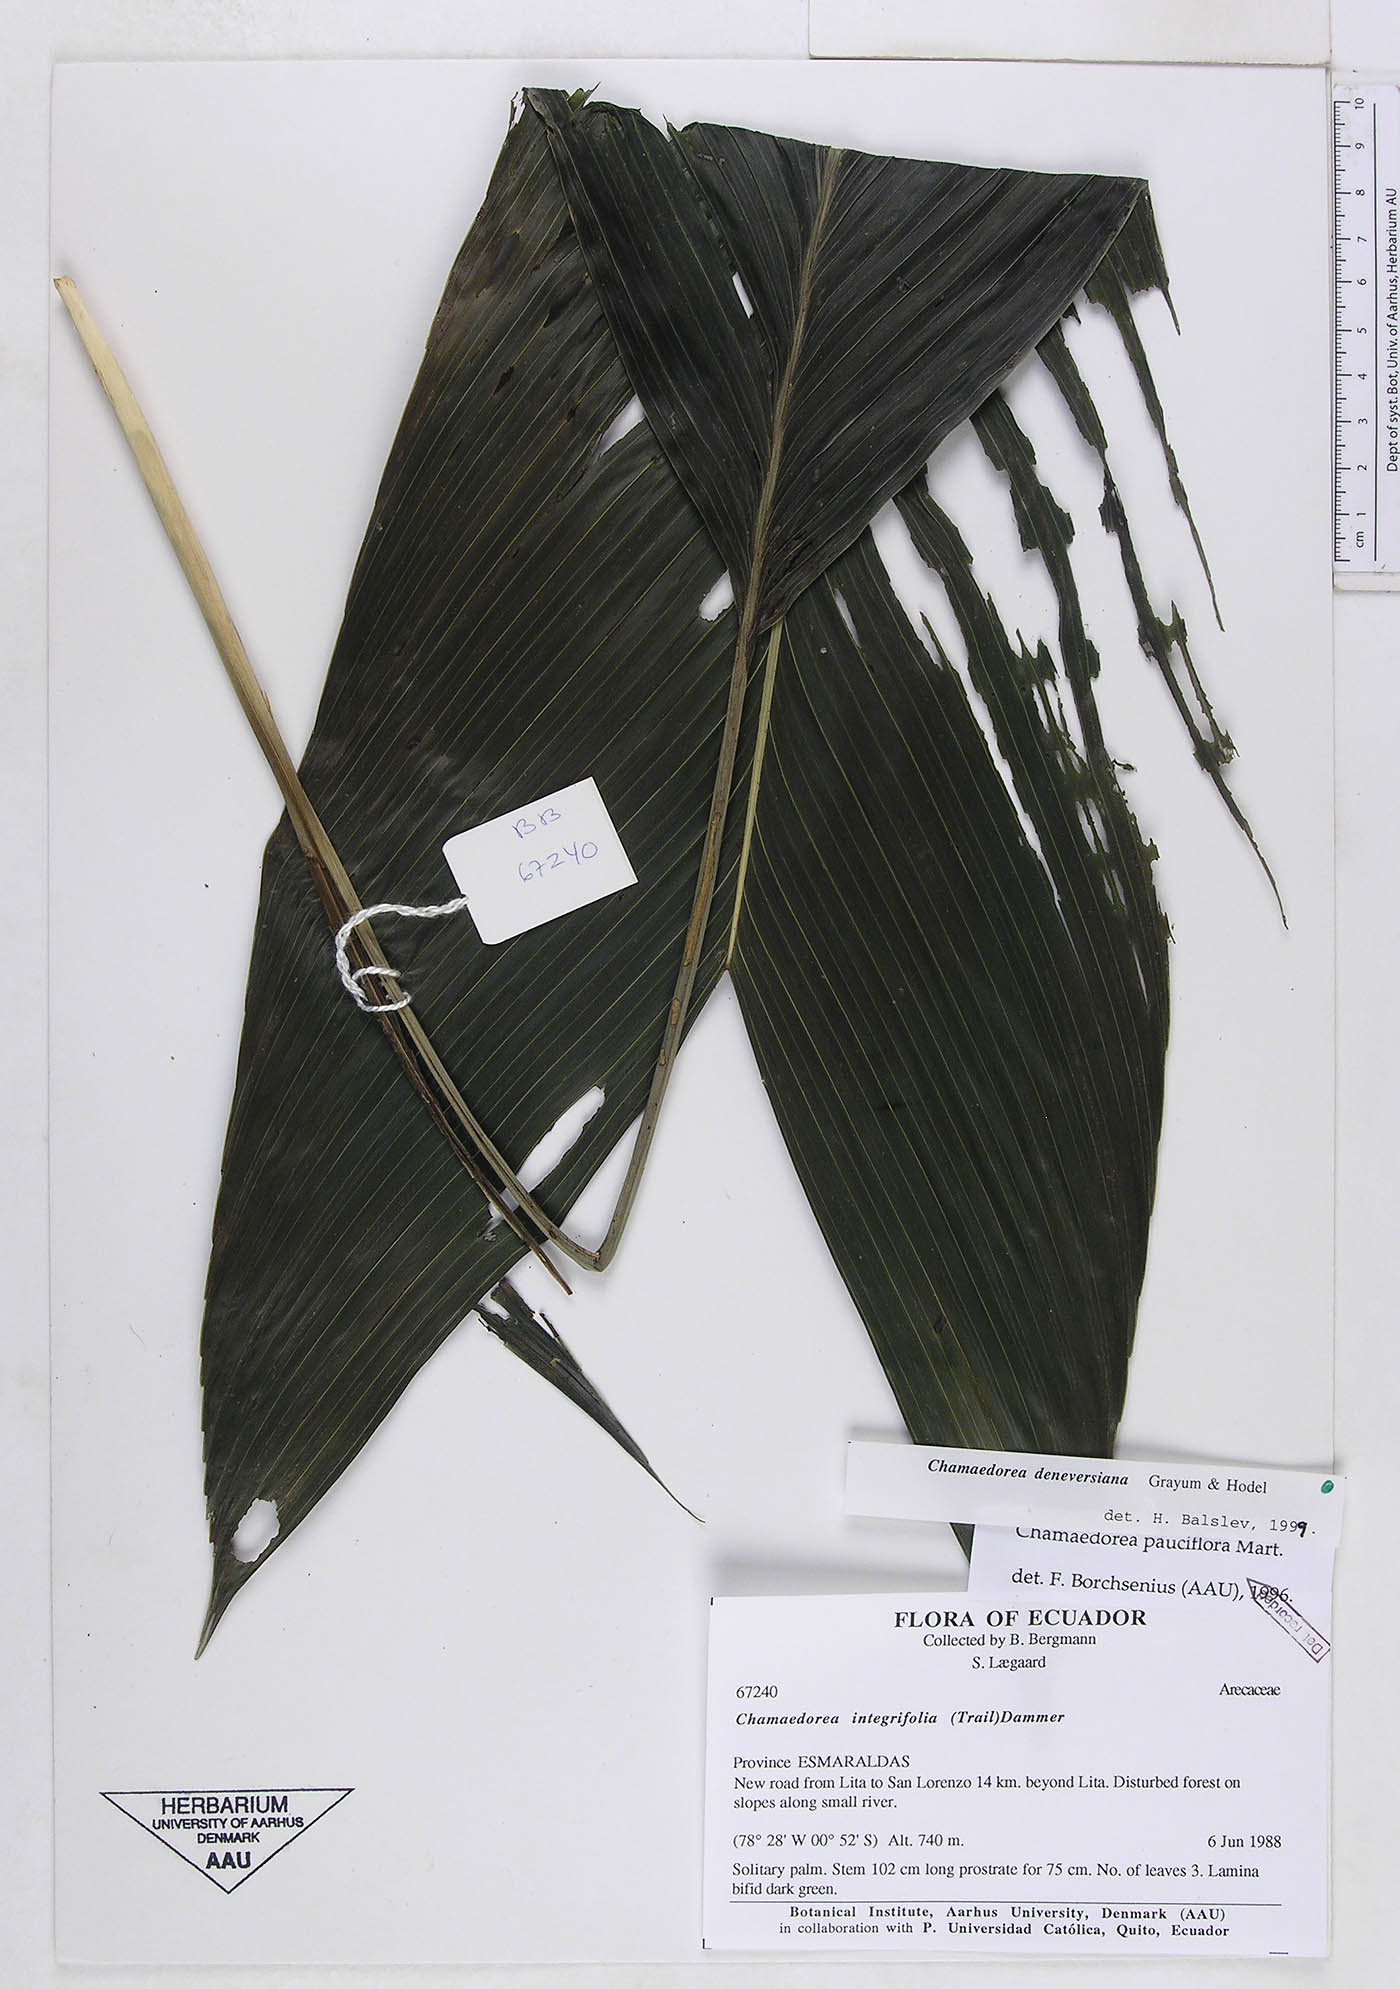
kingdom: Plantae
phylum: Tracheophyta
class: Liliopsida
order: Arecales
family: Arecaceae
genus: Chamaedorea
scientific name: Chamaedorea deneversiana
